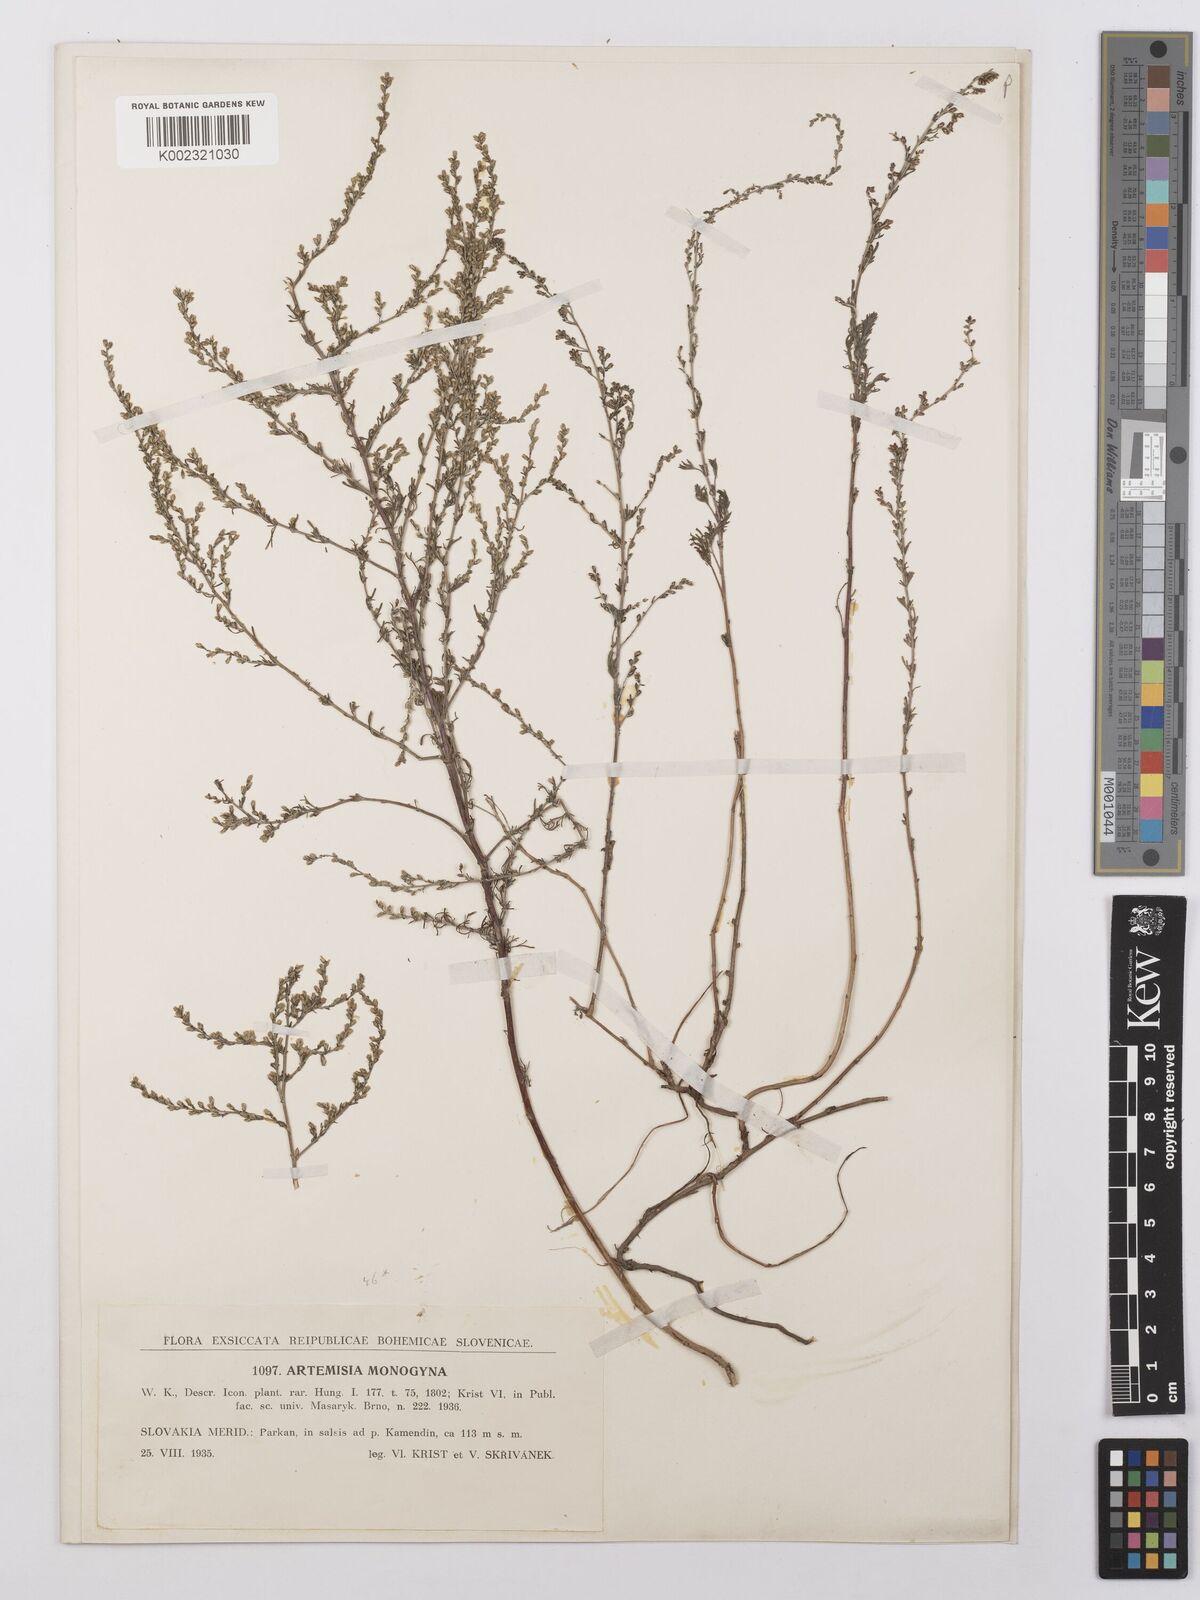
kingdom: Plantae
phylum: Tracheophyta
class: Magnoliopsida
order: Asterales
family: Asteraceae
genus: Artemisia
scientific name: Artemisia santonicum
